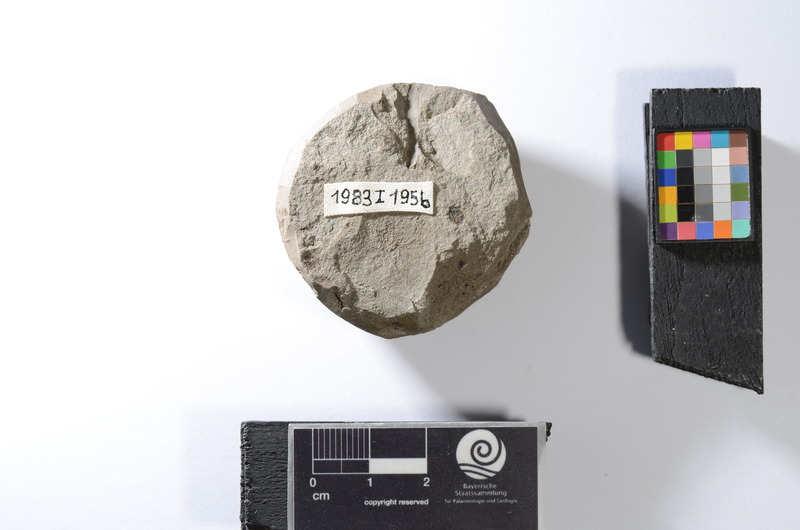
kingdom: Animalia
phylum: Chordata
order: Clupeiformes
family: Clupeidae
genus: Sprattus
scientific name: Sprattus
